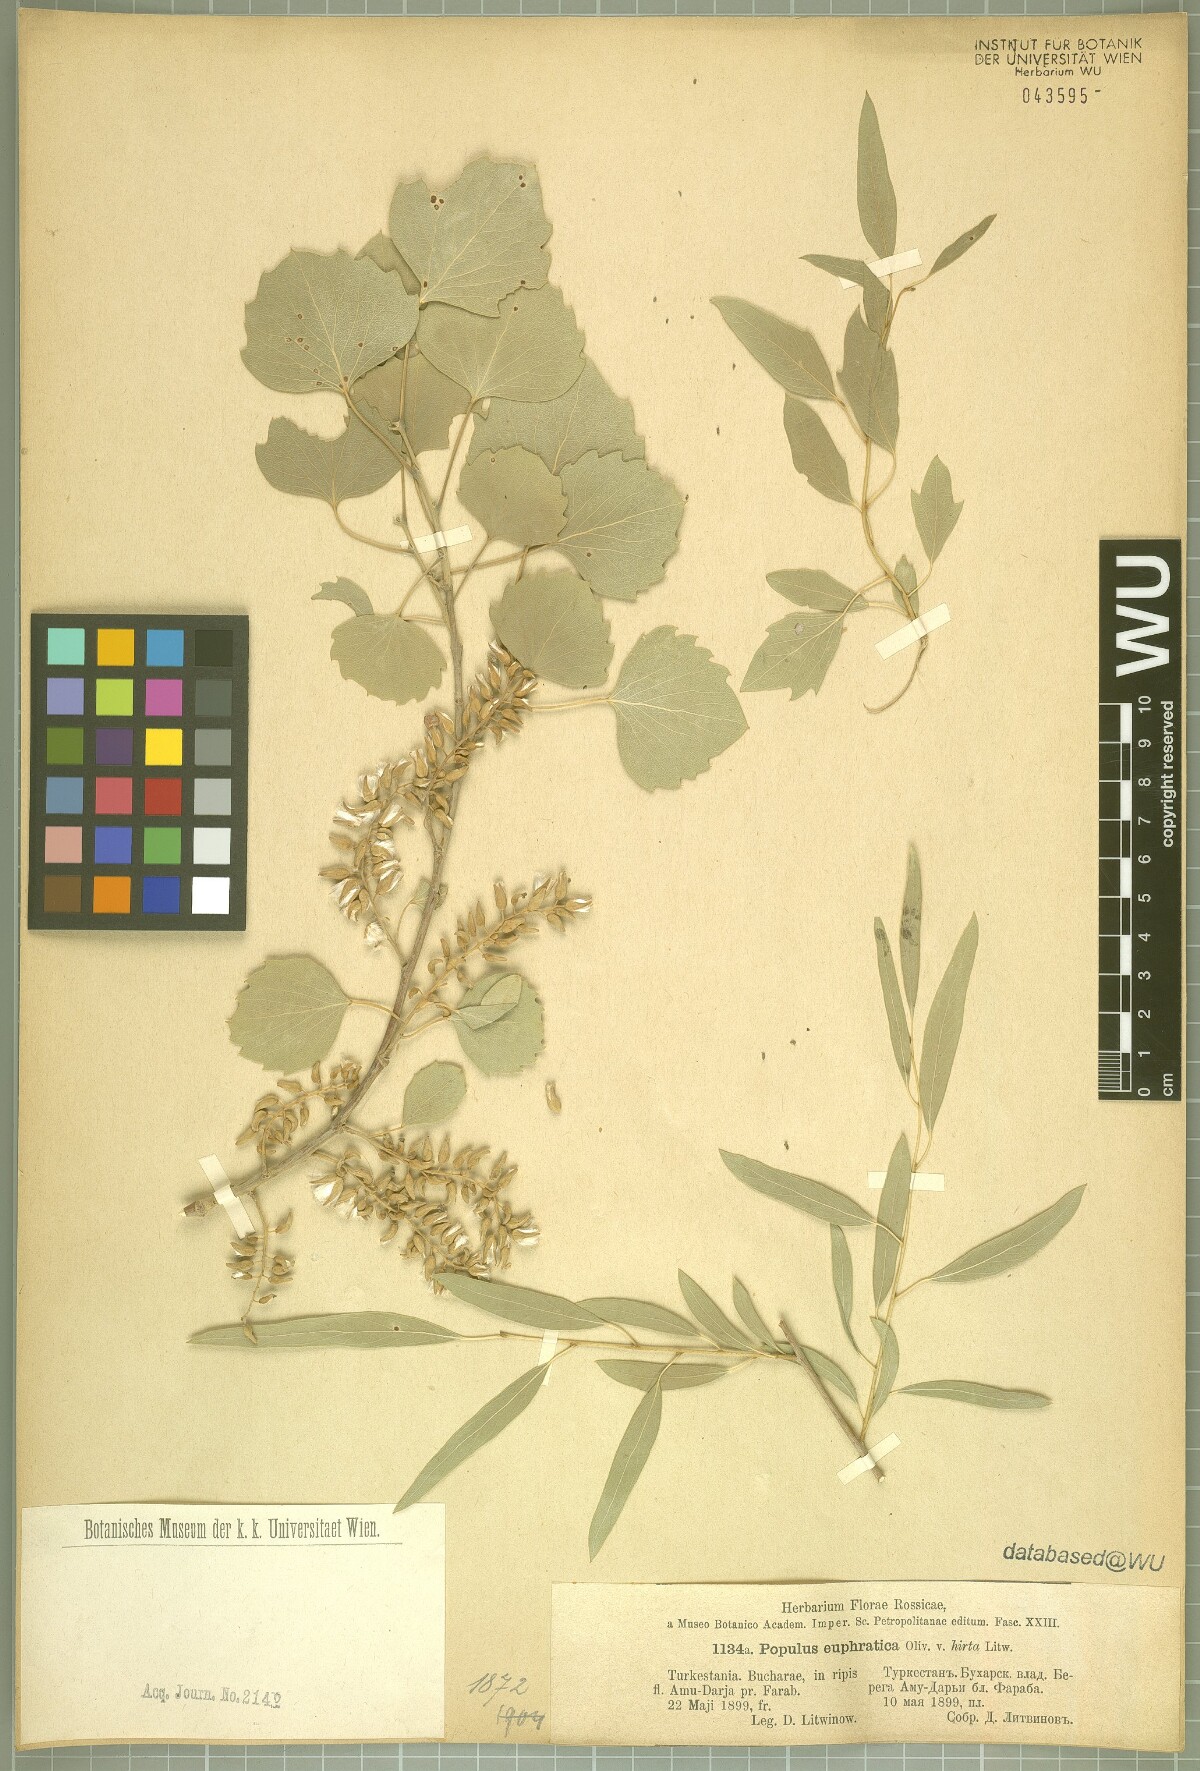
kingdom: Plantae
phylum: Tracheophyta
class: Magnoliopsida
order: Malpighiales
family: Salicaceae
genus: Populus
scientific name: Populus euphratica
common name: Euphrates poplar
